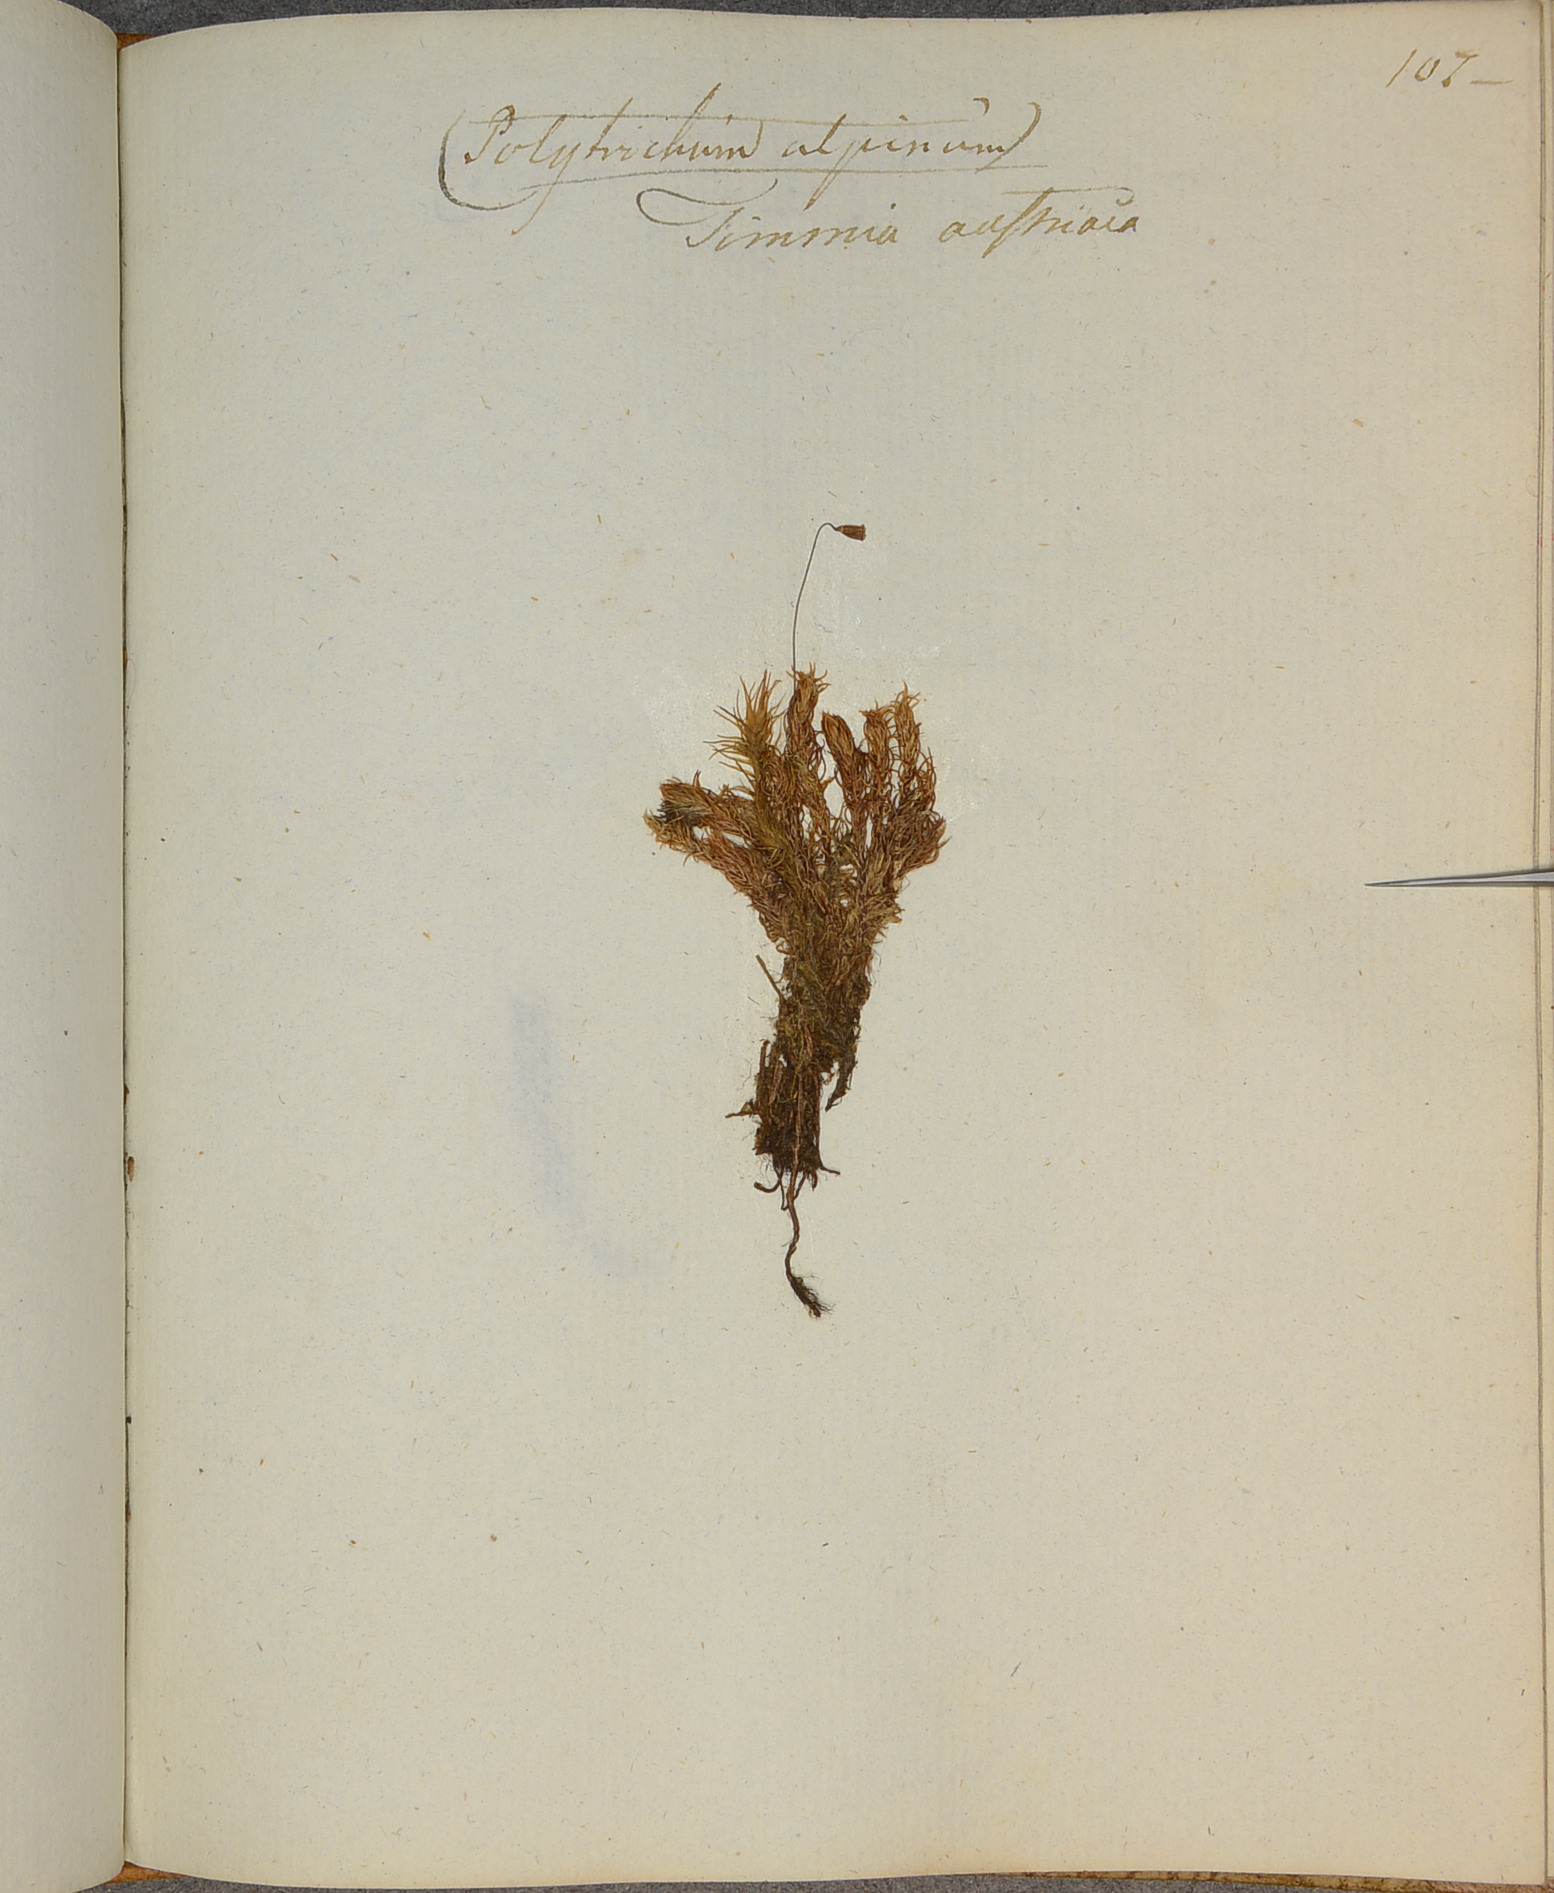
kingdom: Plantae
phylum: Bryophyta
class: Bryopsida
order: Timmiales
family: Timmiaceae
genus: Timmia
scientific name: Timmia austriaca
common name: Austrian timmia
